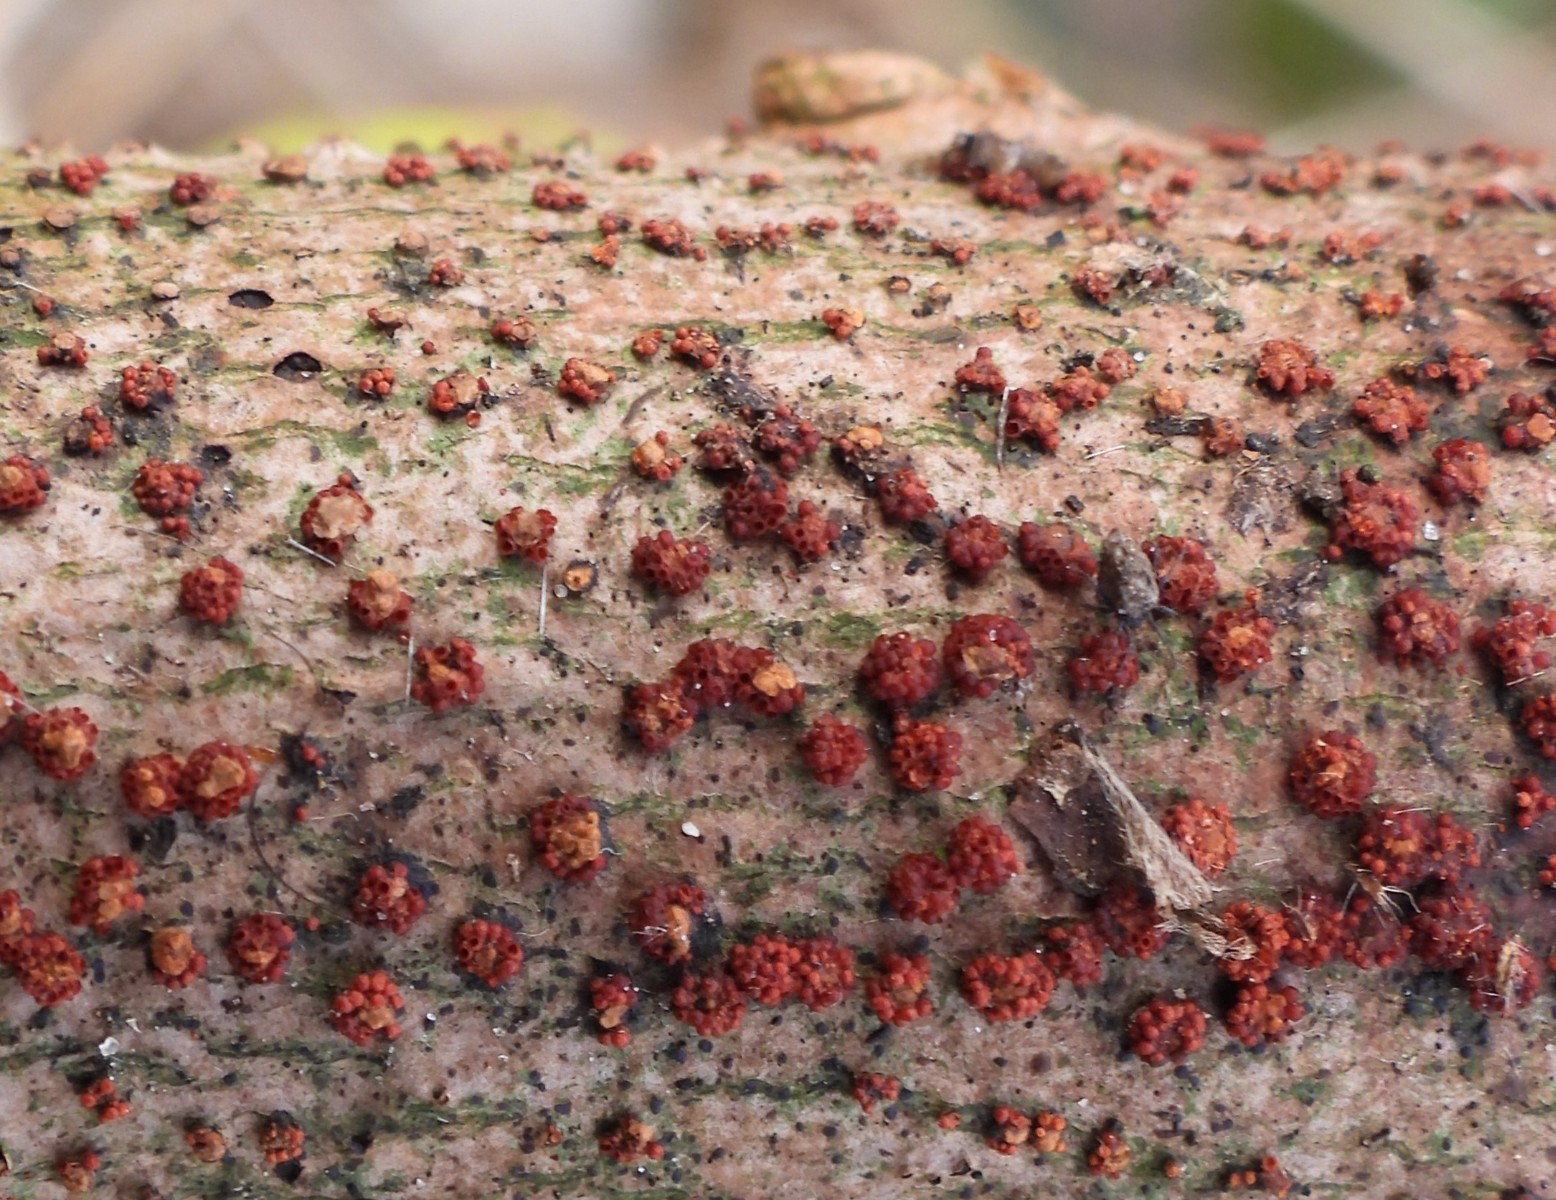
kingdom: Fungi
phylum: Ascomycota
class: Sordariomycetes
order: Hypocreales
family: Nectriaceae
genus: Nectria
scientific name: Nectria cinnabarina
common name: almindelig cinnobersvamp
